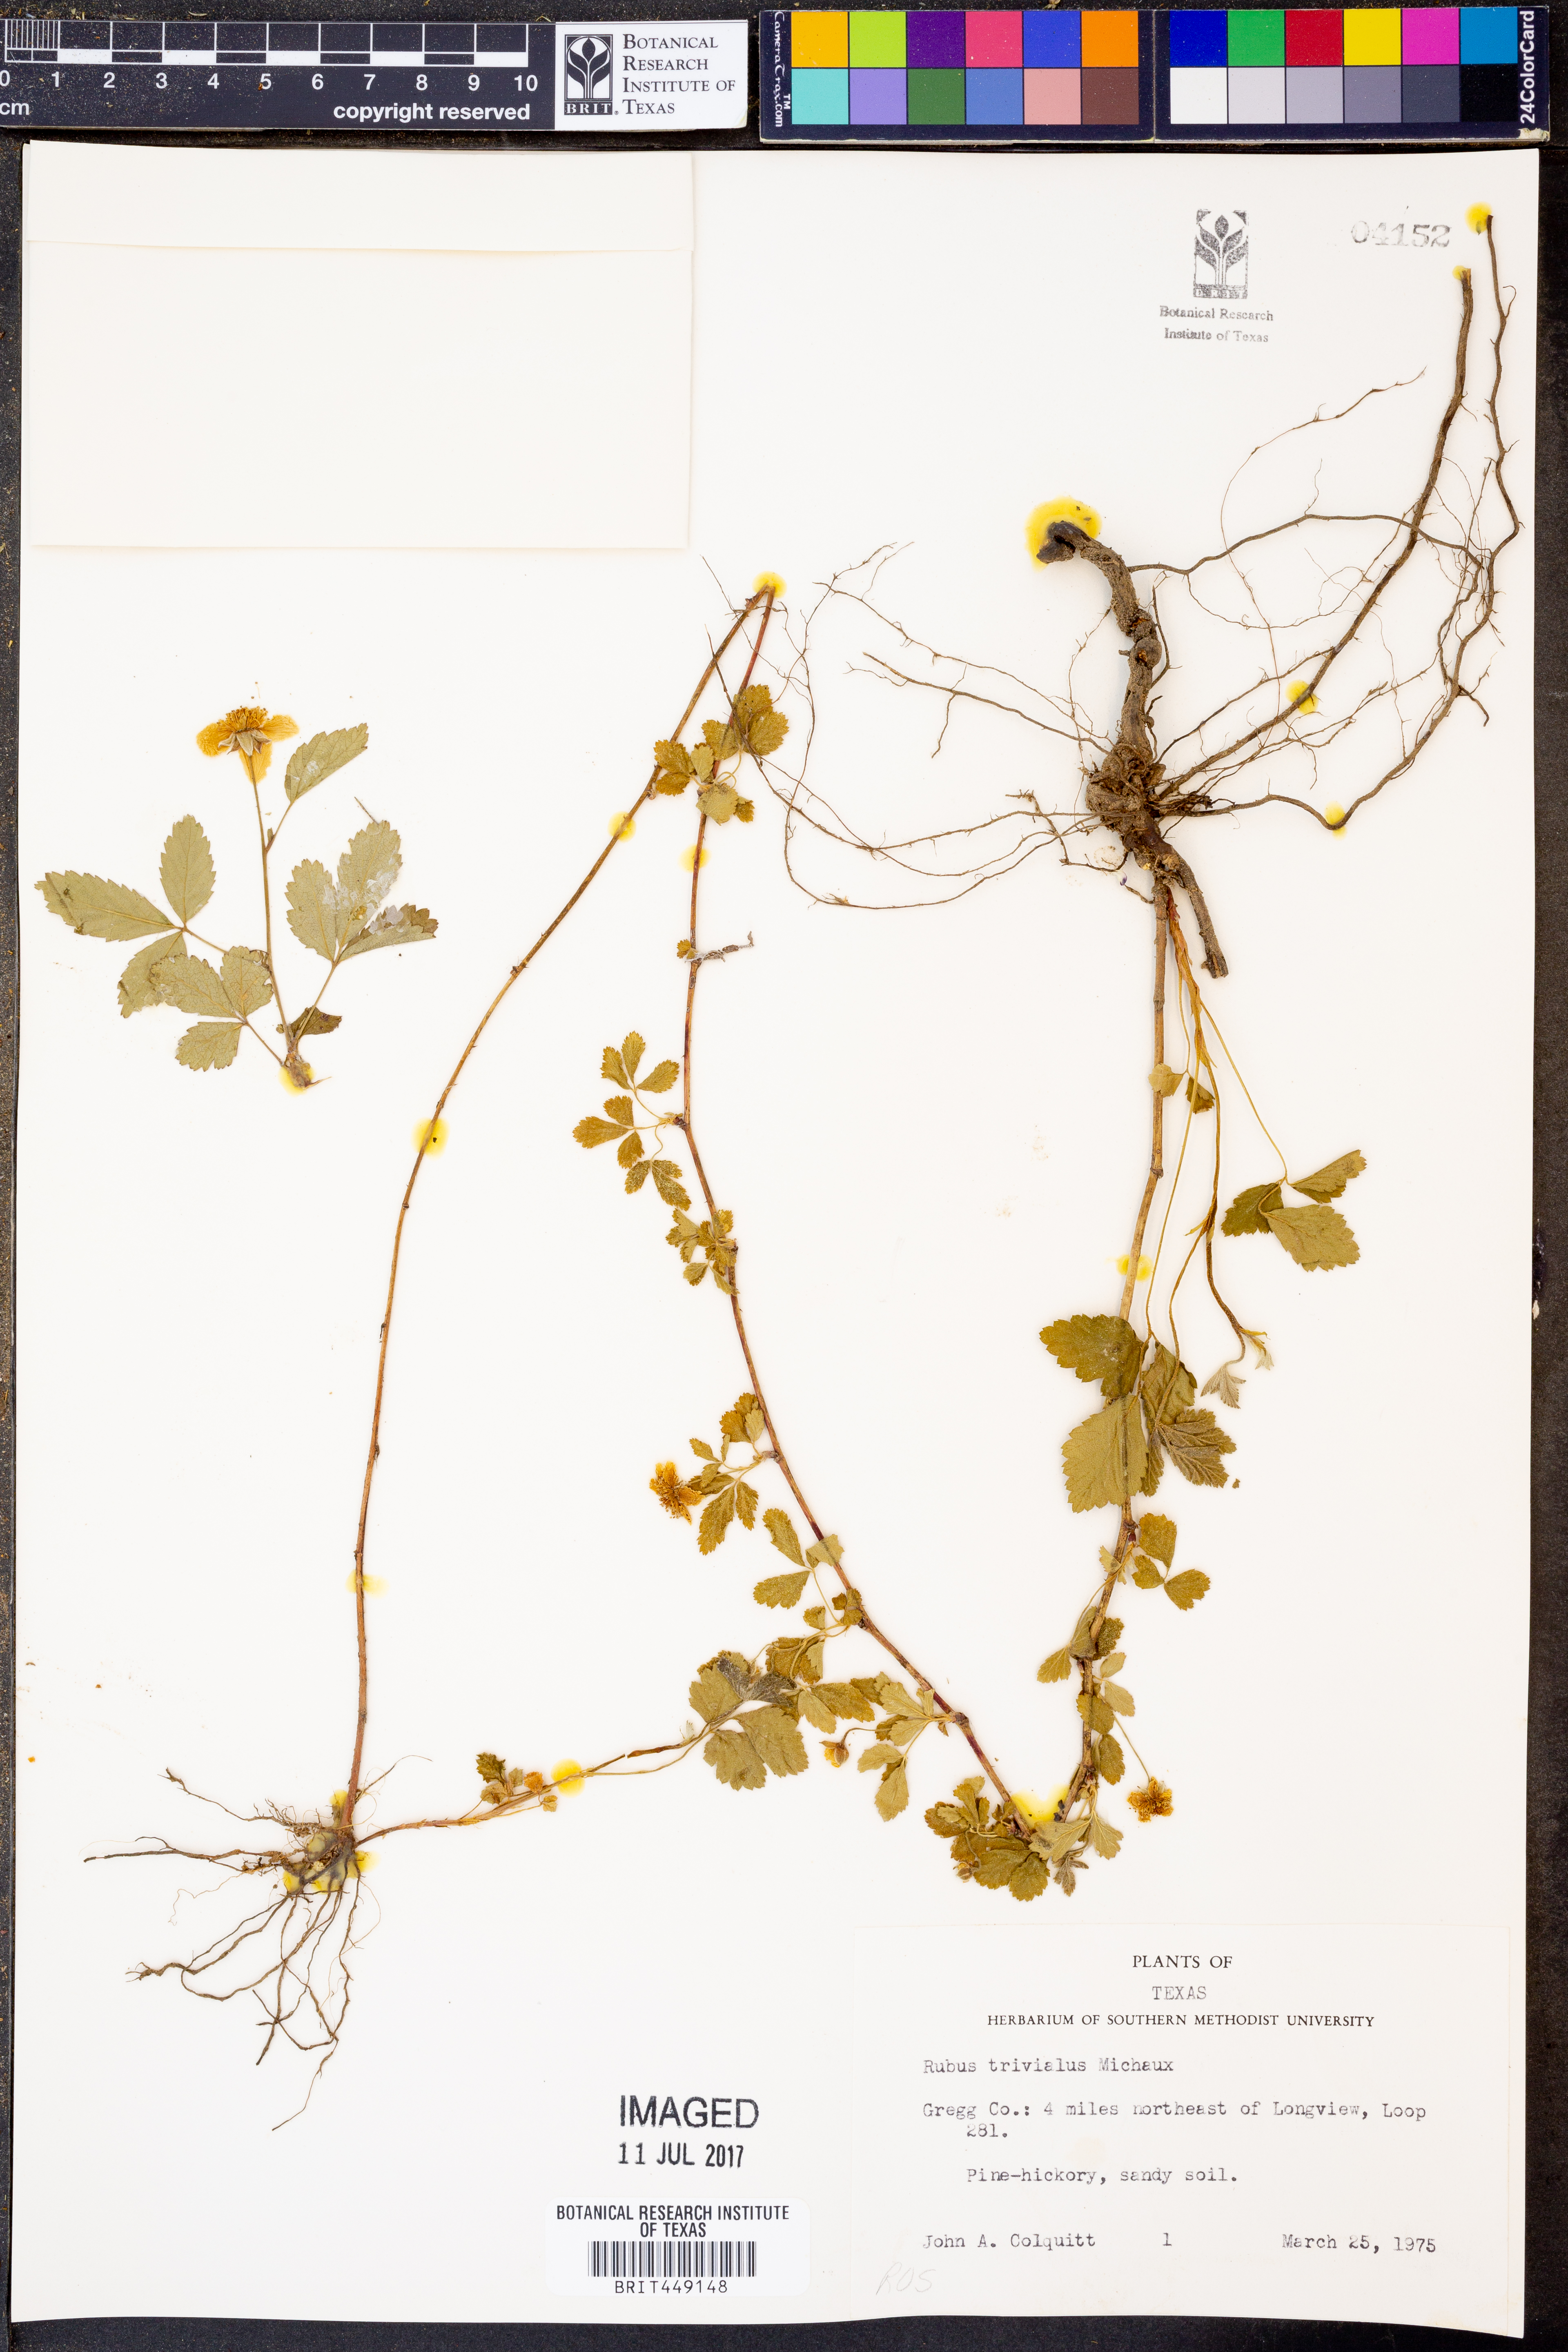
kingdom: Plantae
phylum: Tracheophyta
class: Magnoliopsida
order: Rosales
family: Rosaceae
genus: Rubus
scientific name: Rubus trivialis
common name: Southern dewberry
